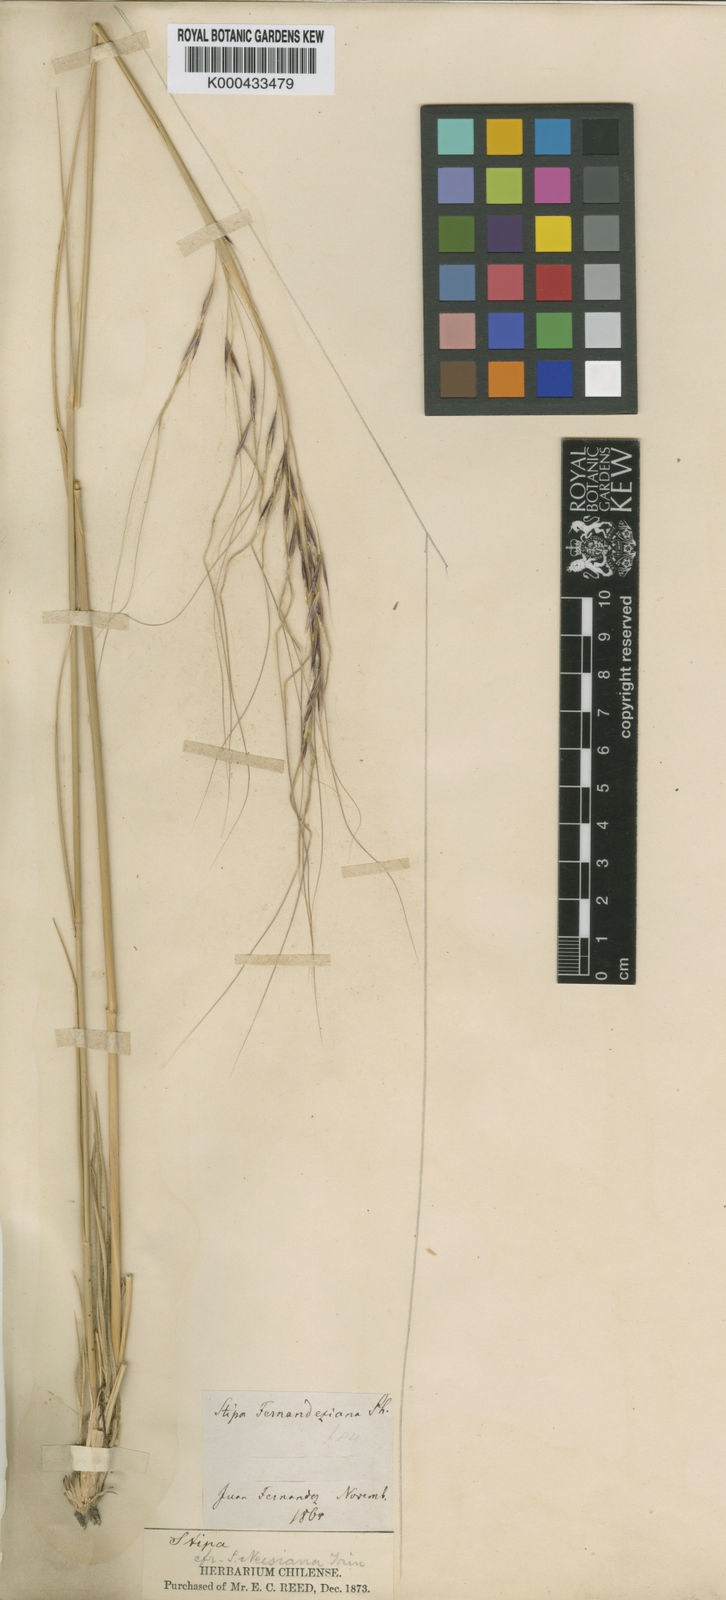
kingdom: Plantae
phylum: Tracheophyta
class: Liliopsida
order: Poales
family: Poaceae
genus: Nassella
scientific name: Nassella macrathera
